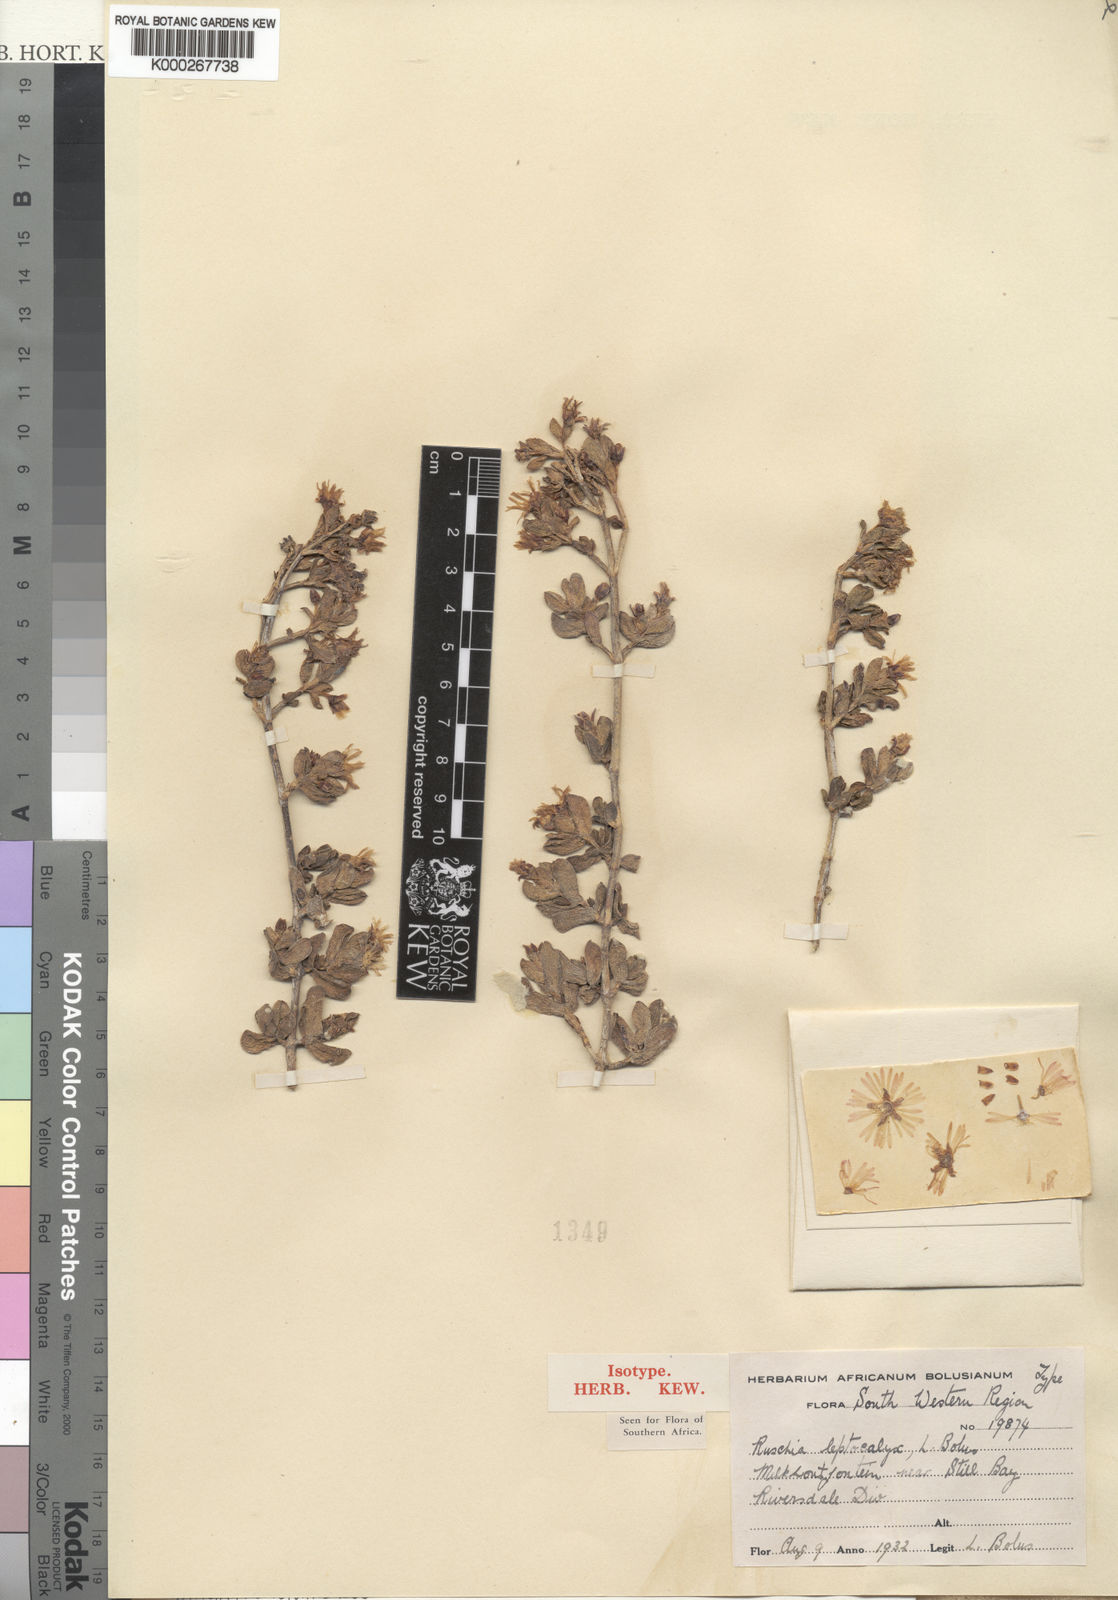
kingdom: Plantae
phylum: Tracheophyta
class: Magnoliopsida
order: Caryophyllales
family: Aizoaceae
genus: Ruschia
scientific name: Ruschia leptocalyx
